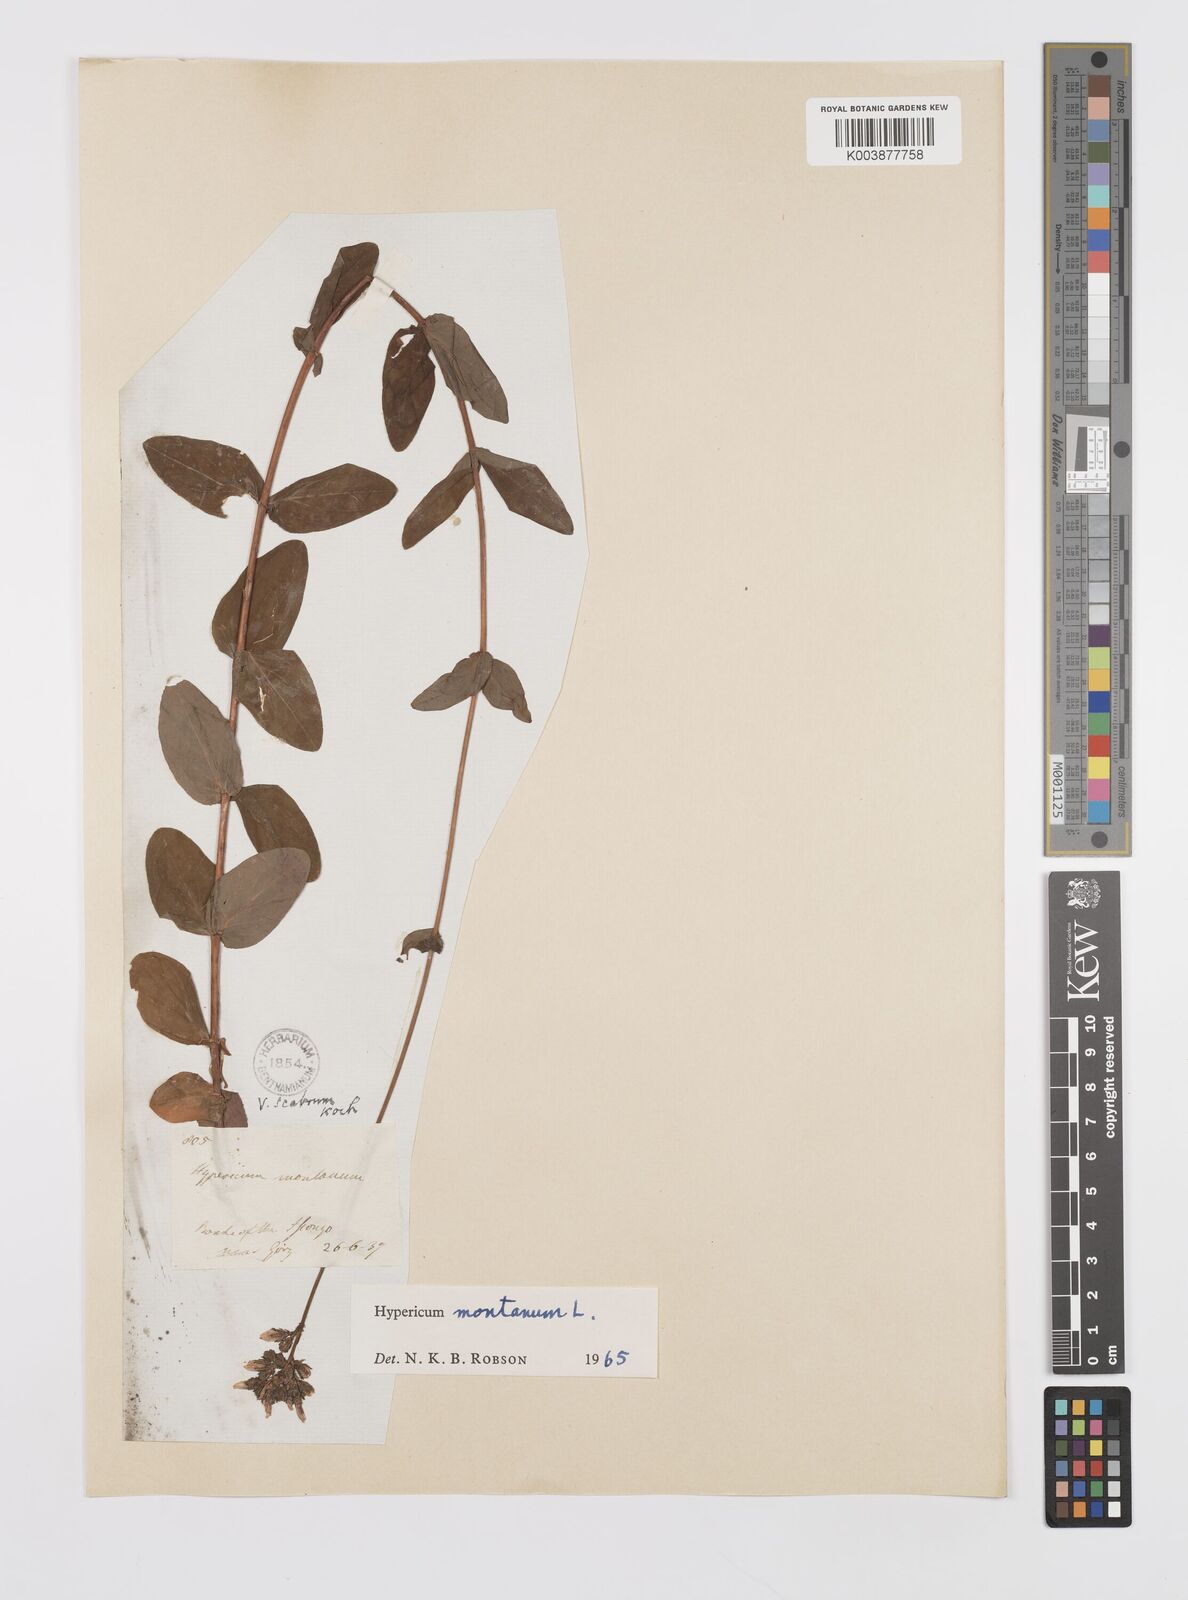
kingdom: Plantae
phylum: Tracheophyta
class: Magnoliopsida
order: Malpighiales
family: Hypericaceae
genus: Hypericum
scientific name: Hypericum montanum
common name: Pale st. john's-wort
